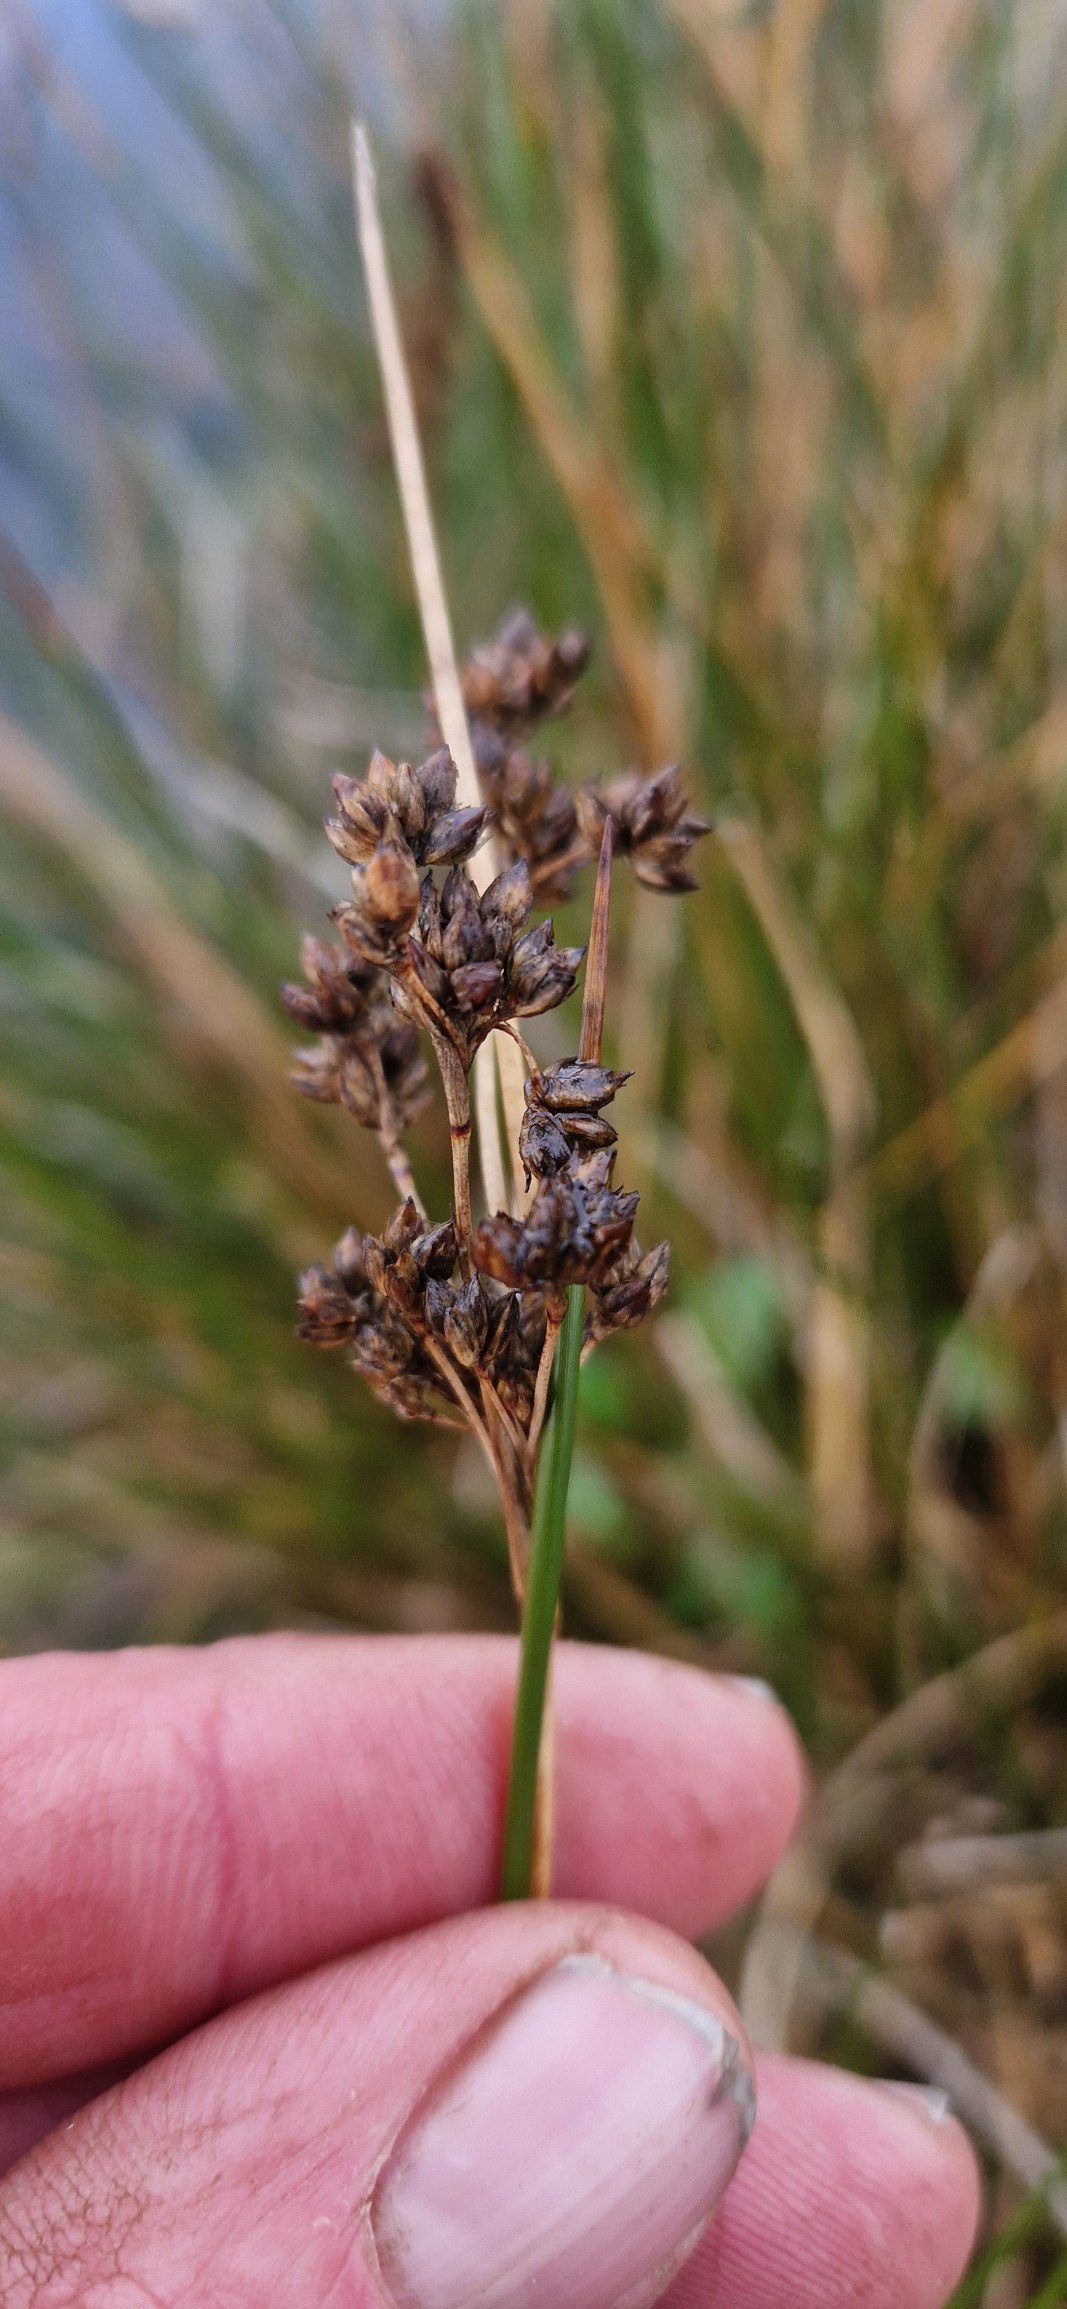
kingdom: Plantae
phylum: Tracheophyta
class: Liliopsida
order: Poales
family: Juncaceae
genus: Juncus
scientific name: Juncus maritimus
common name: Strand-siv
